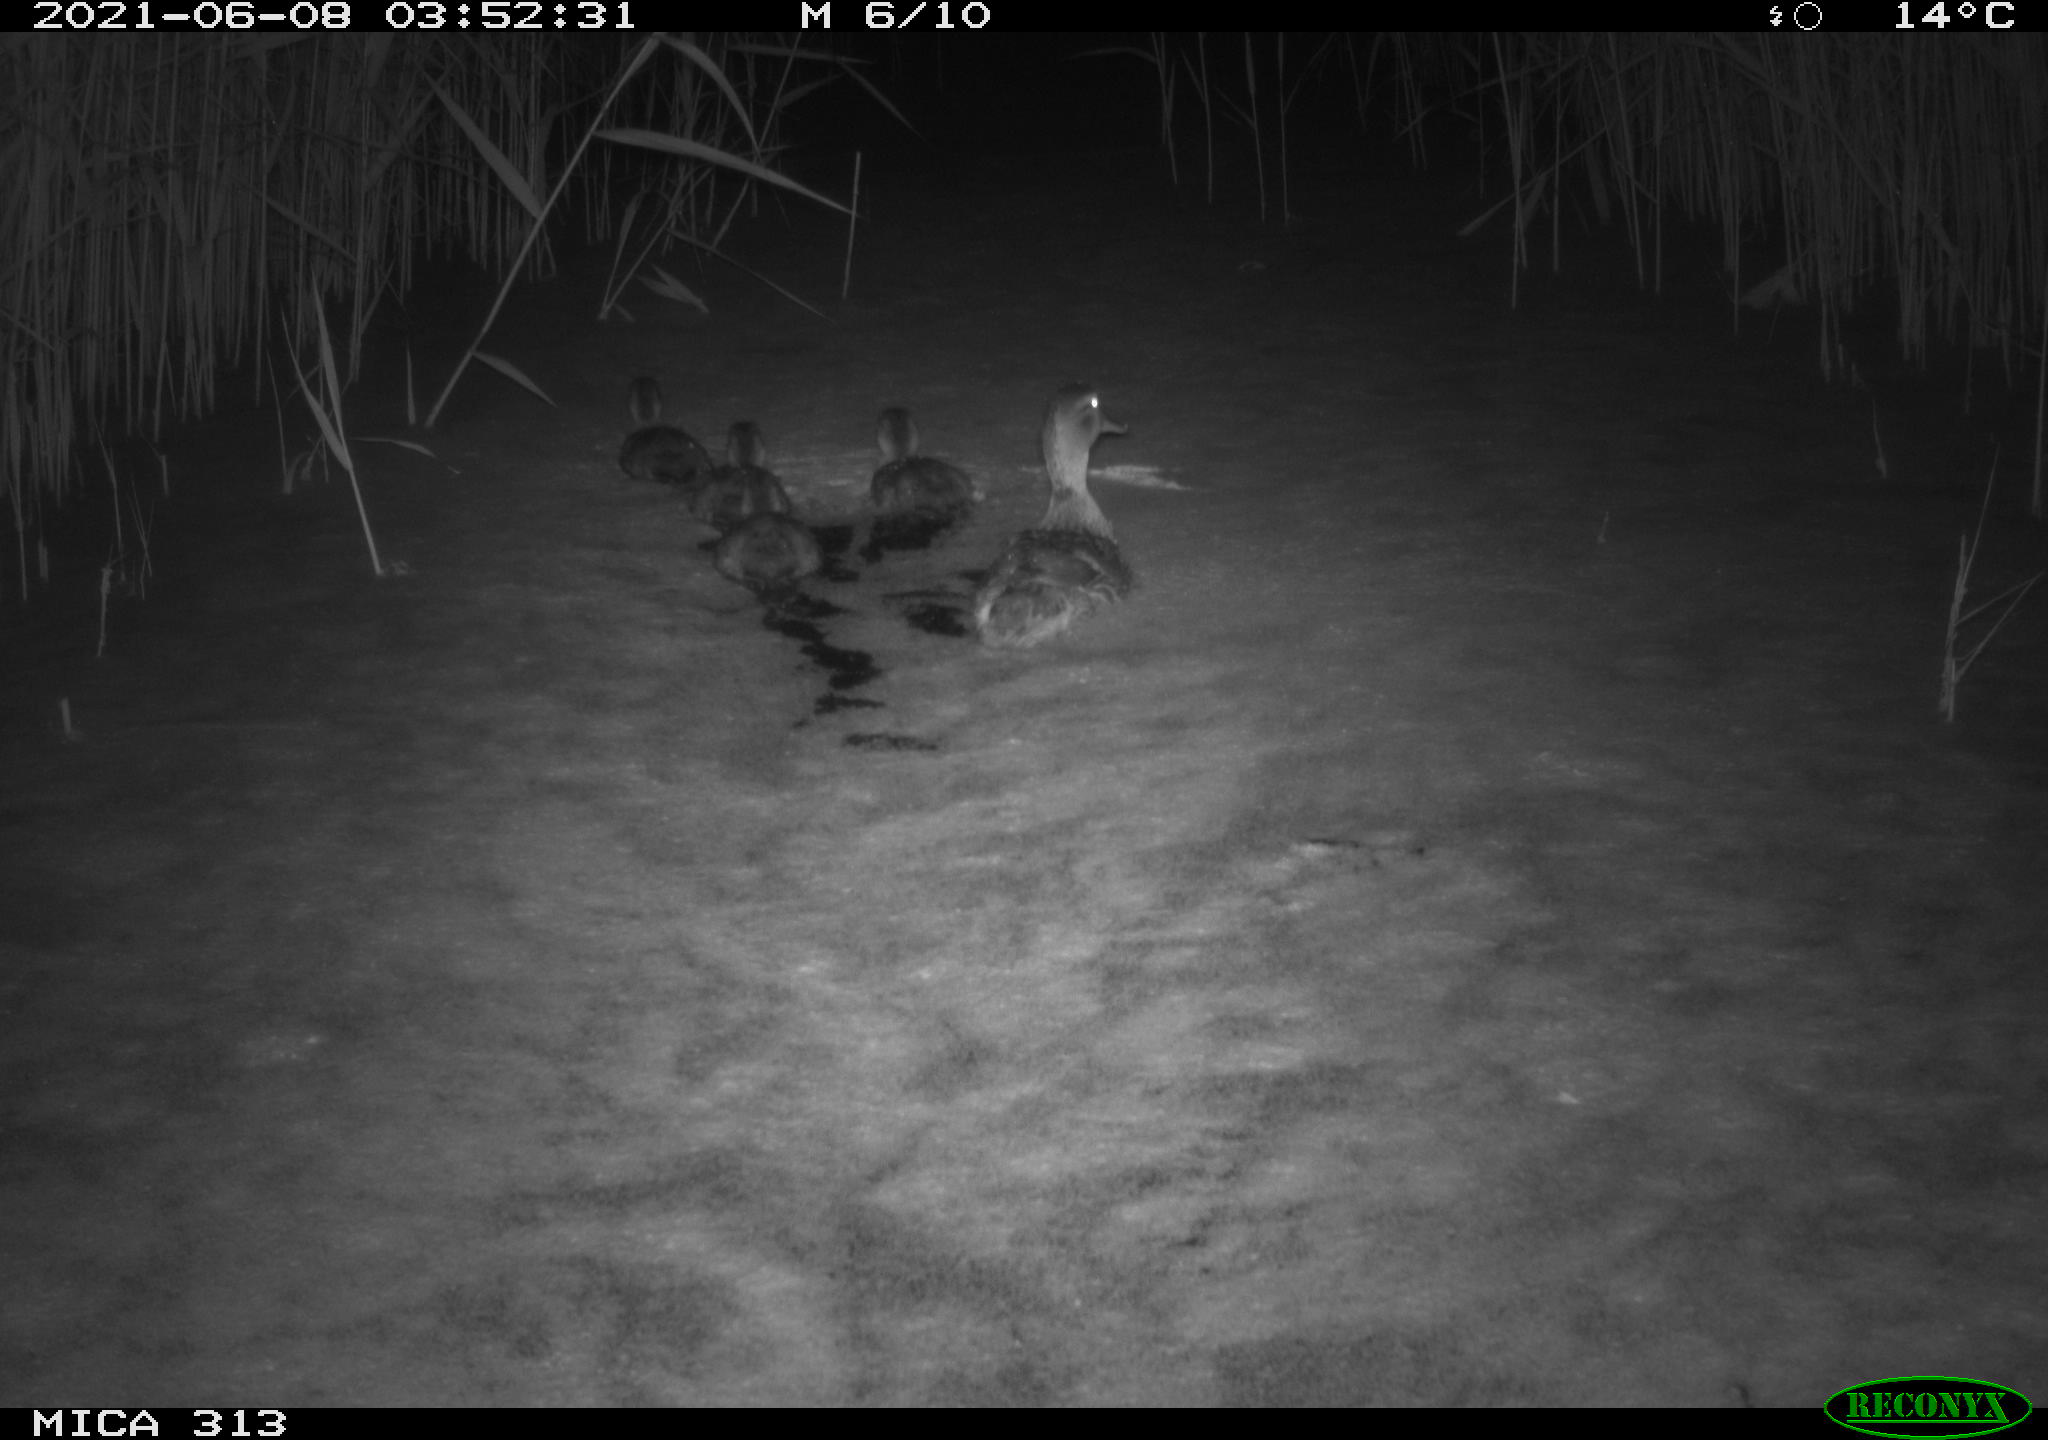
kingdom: Animalia
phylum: Chordata
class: Aves
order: Anseriformes
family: Anatidae
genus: Anas
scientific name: Anas platyrhynchos
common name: Mallard
